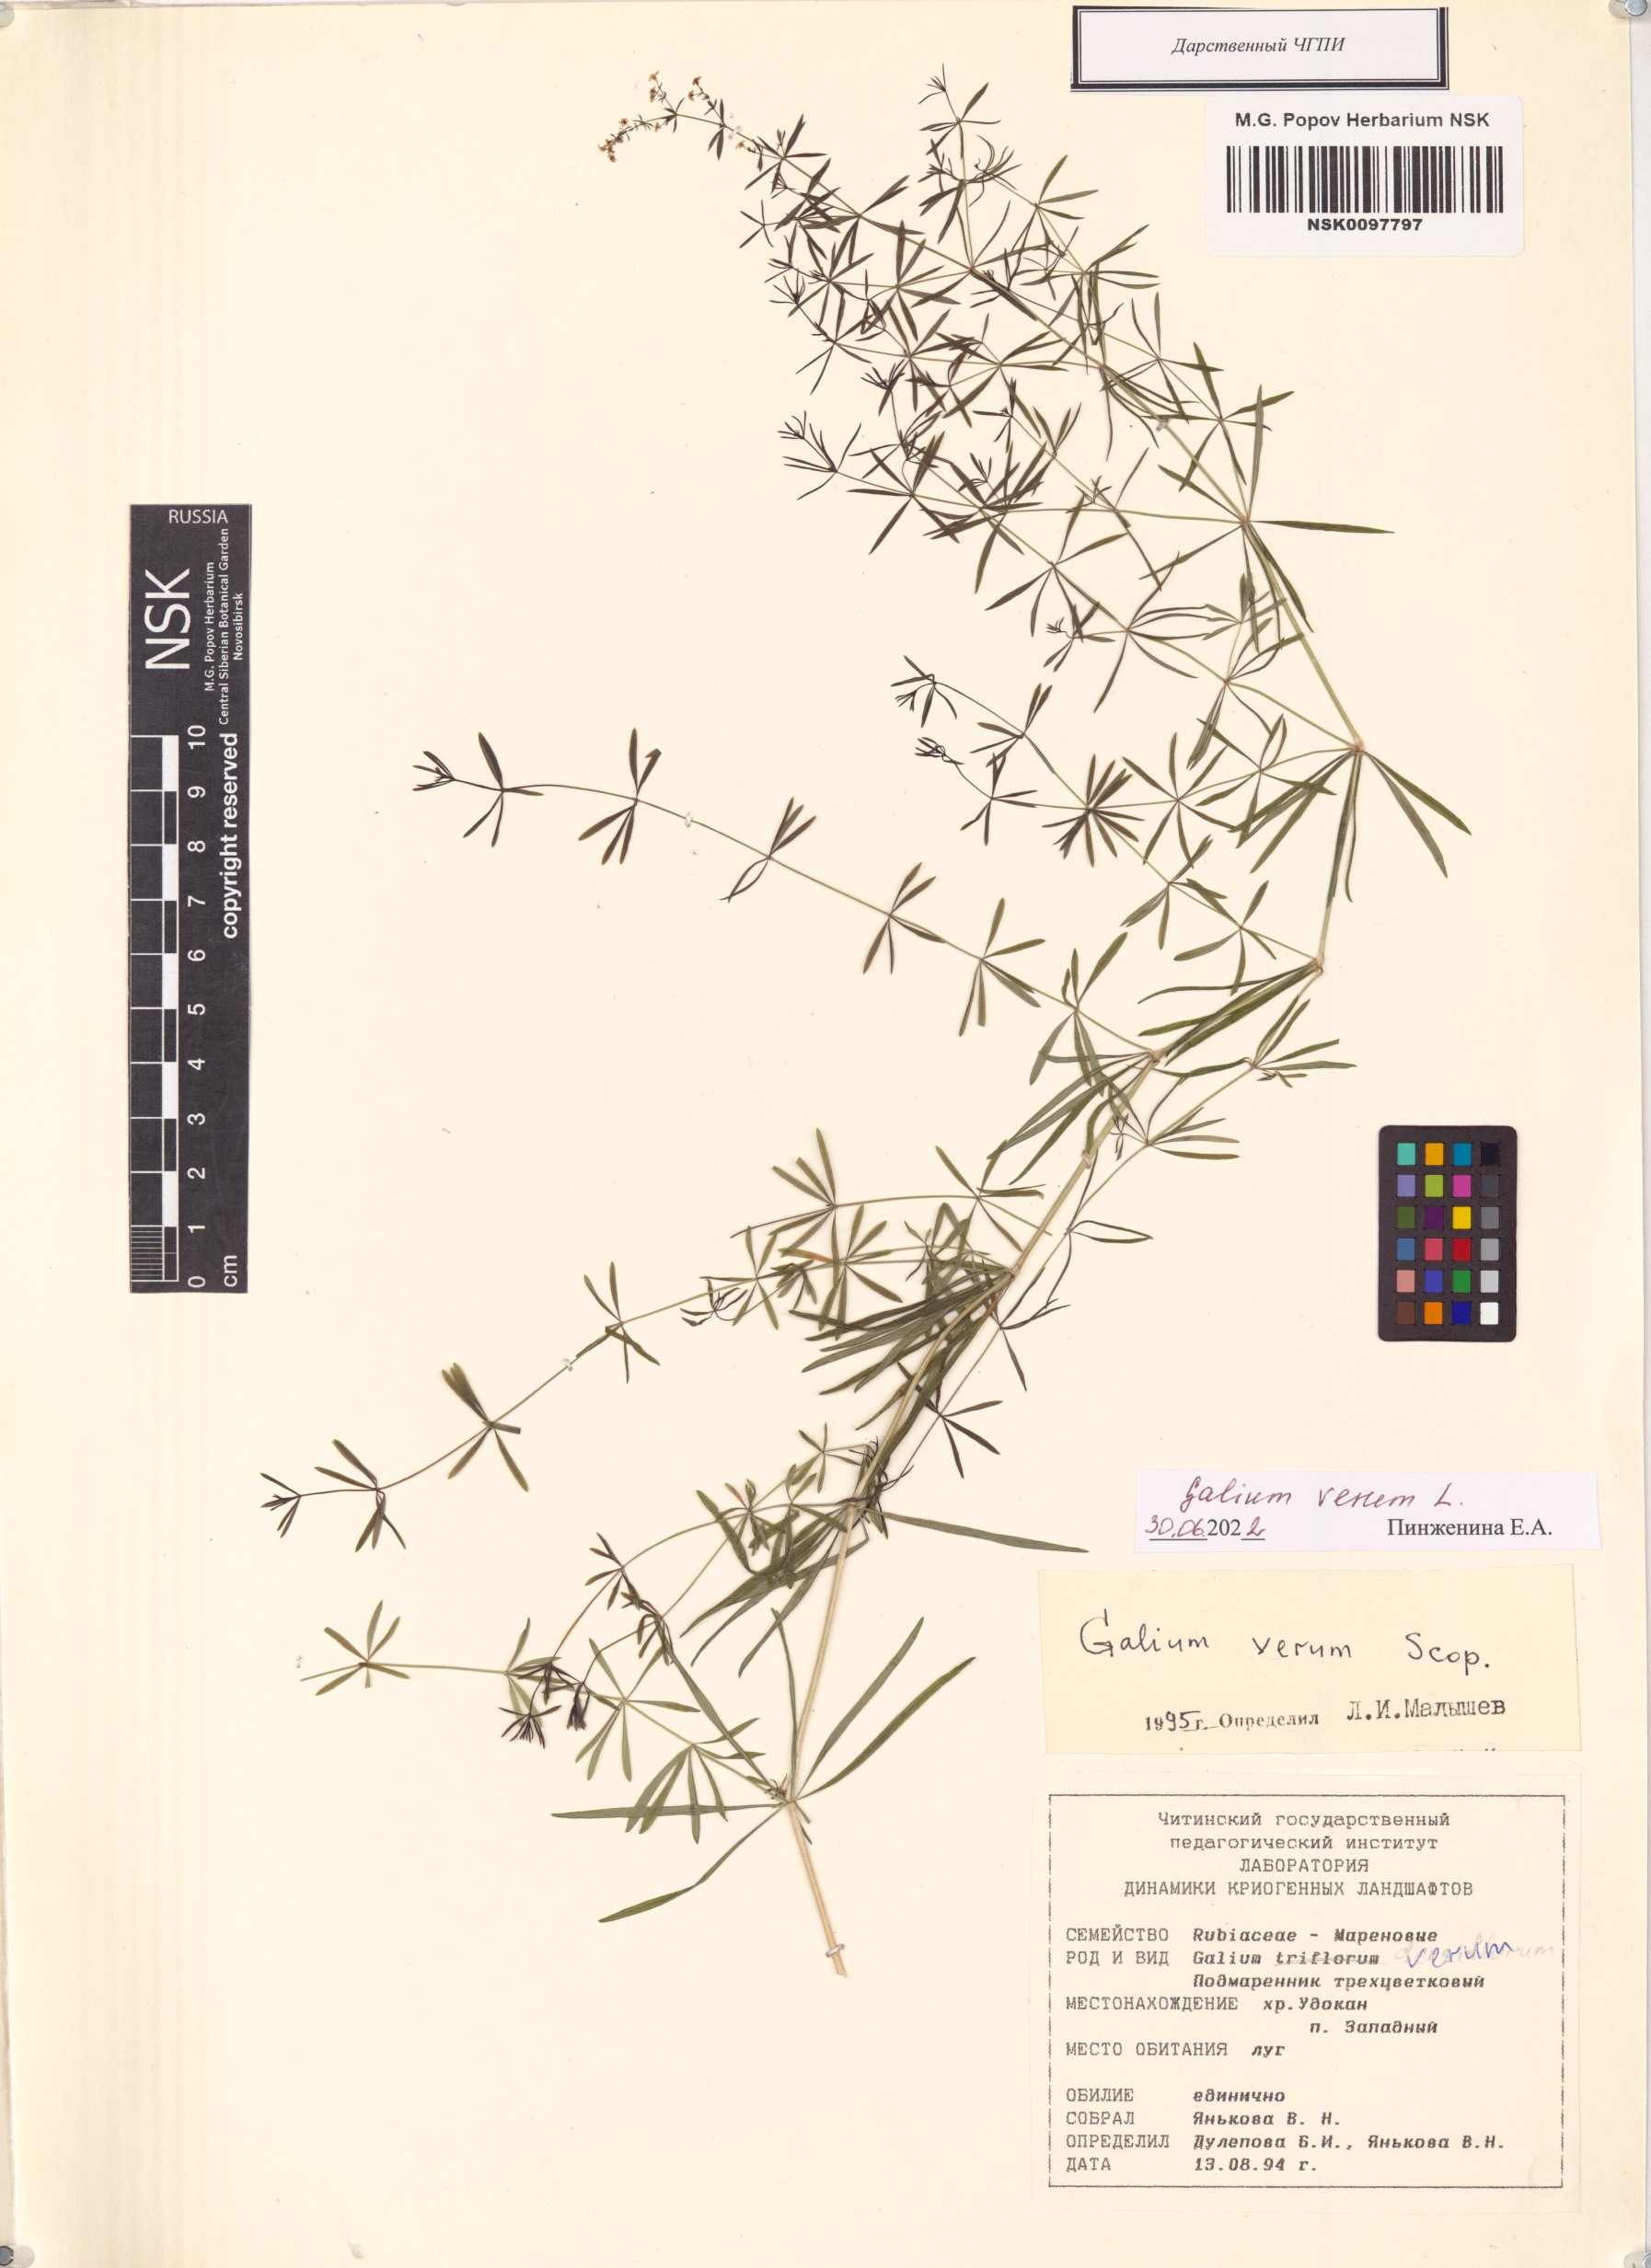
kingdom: Plantae
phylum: Tracheophyta
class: Magnoliopsida
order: Gentianales
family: Rubiaceae
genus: Galium
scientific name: Galium verum
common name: Lady's bedstraw
